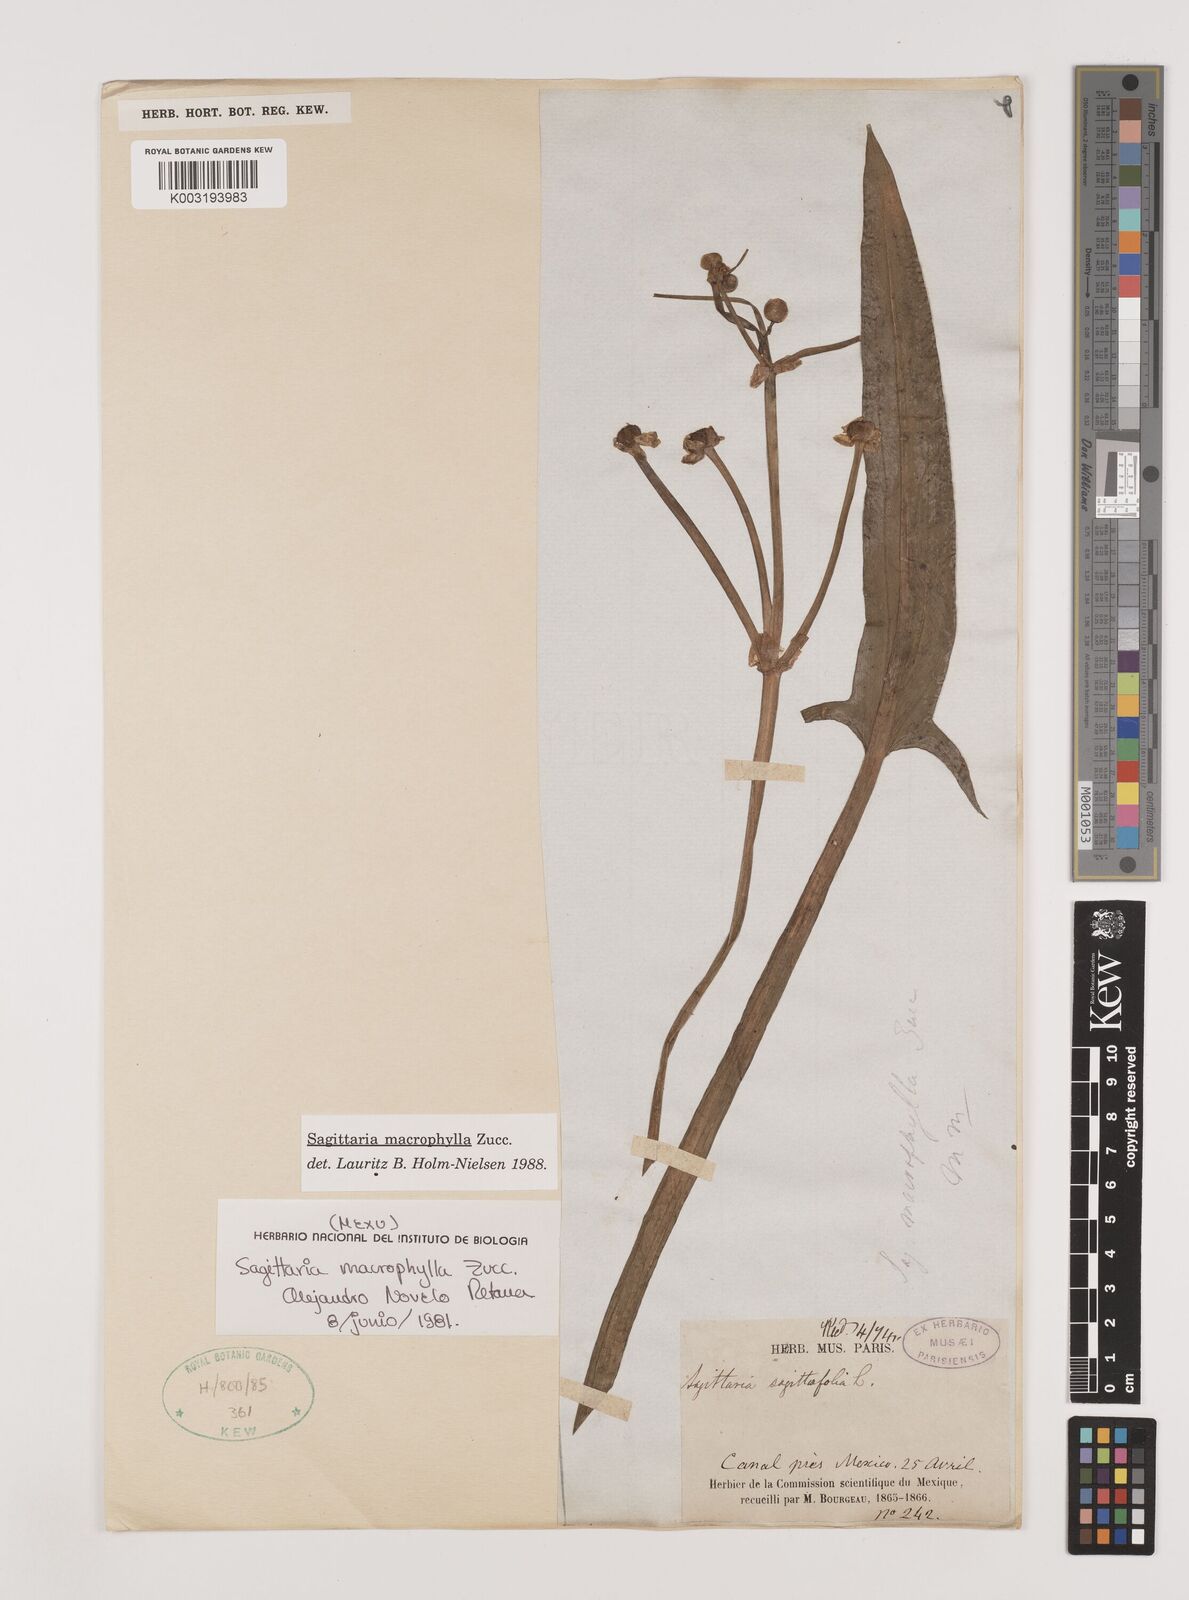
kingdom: Plantae
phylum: Tracheophyta
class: Liliopsida
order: Alismatales
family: Alismataceae
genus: Sagittaria
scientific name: Sagittaria macrophylla
